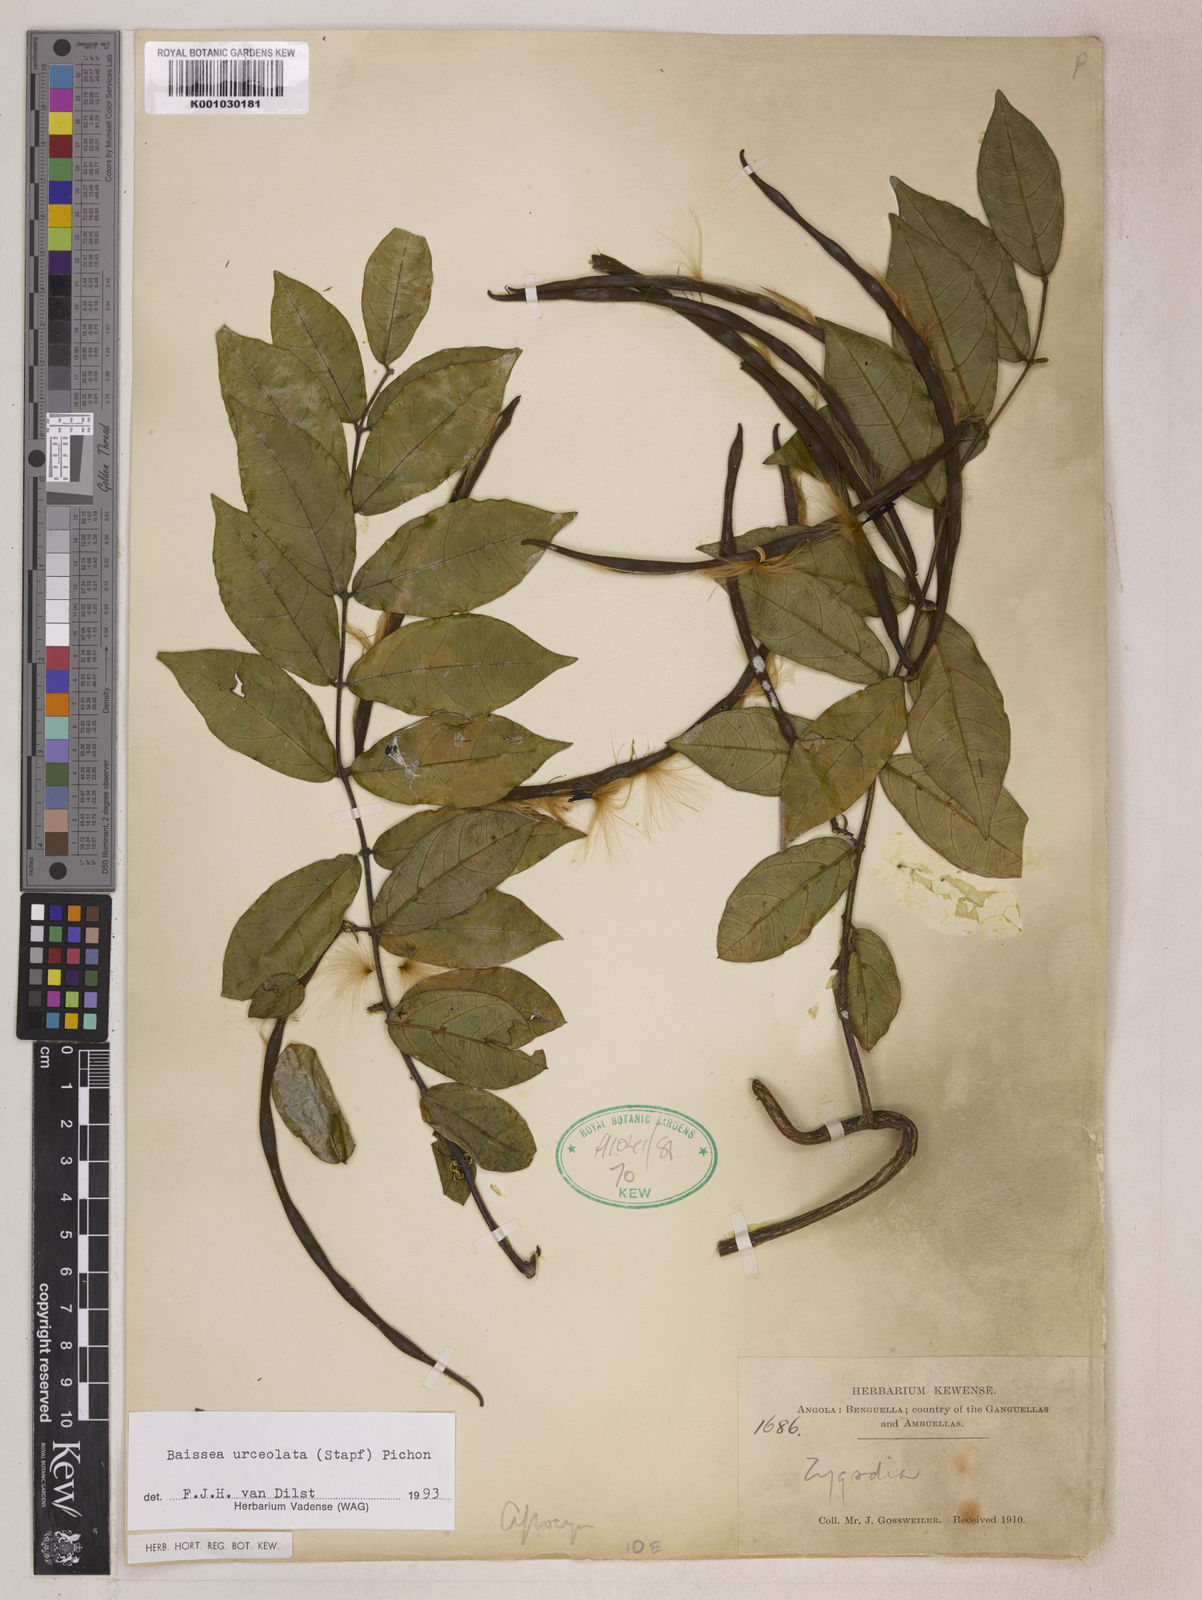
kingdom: Plantae
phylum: Tracheophyta
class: Magnoliopsida
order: Gentianales
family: Apocynaceae
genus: Baissea
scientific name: Baissea myrtifolia
